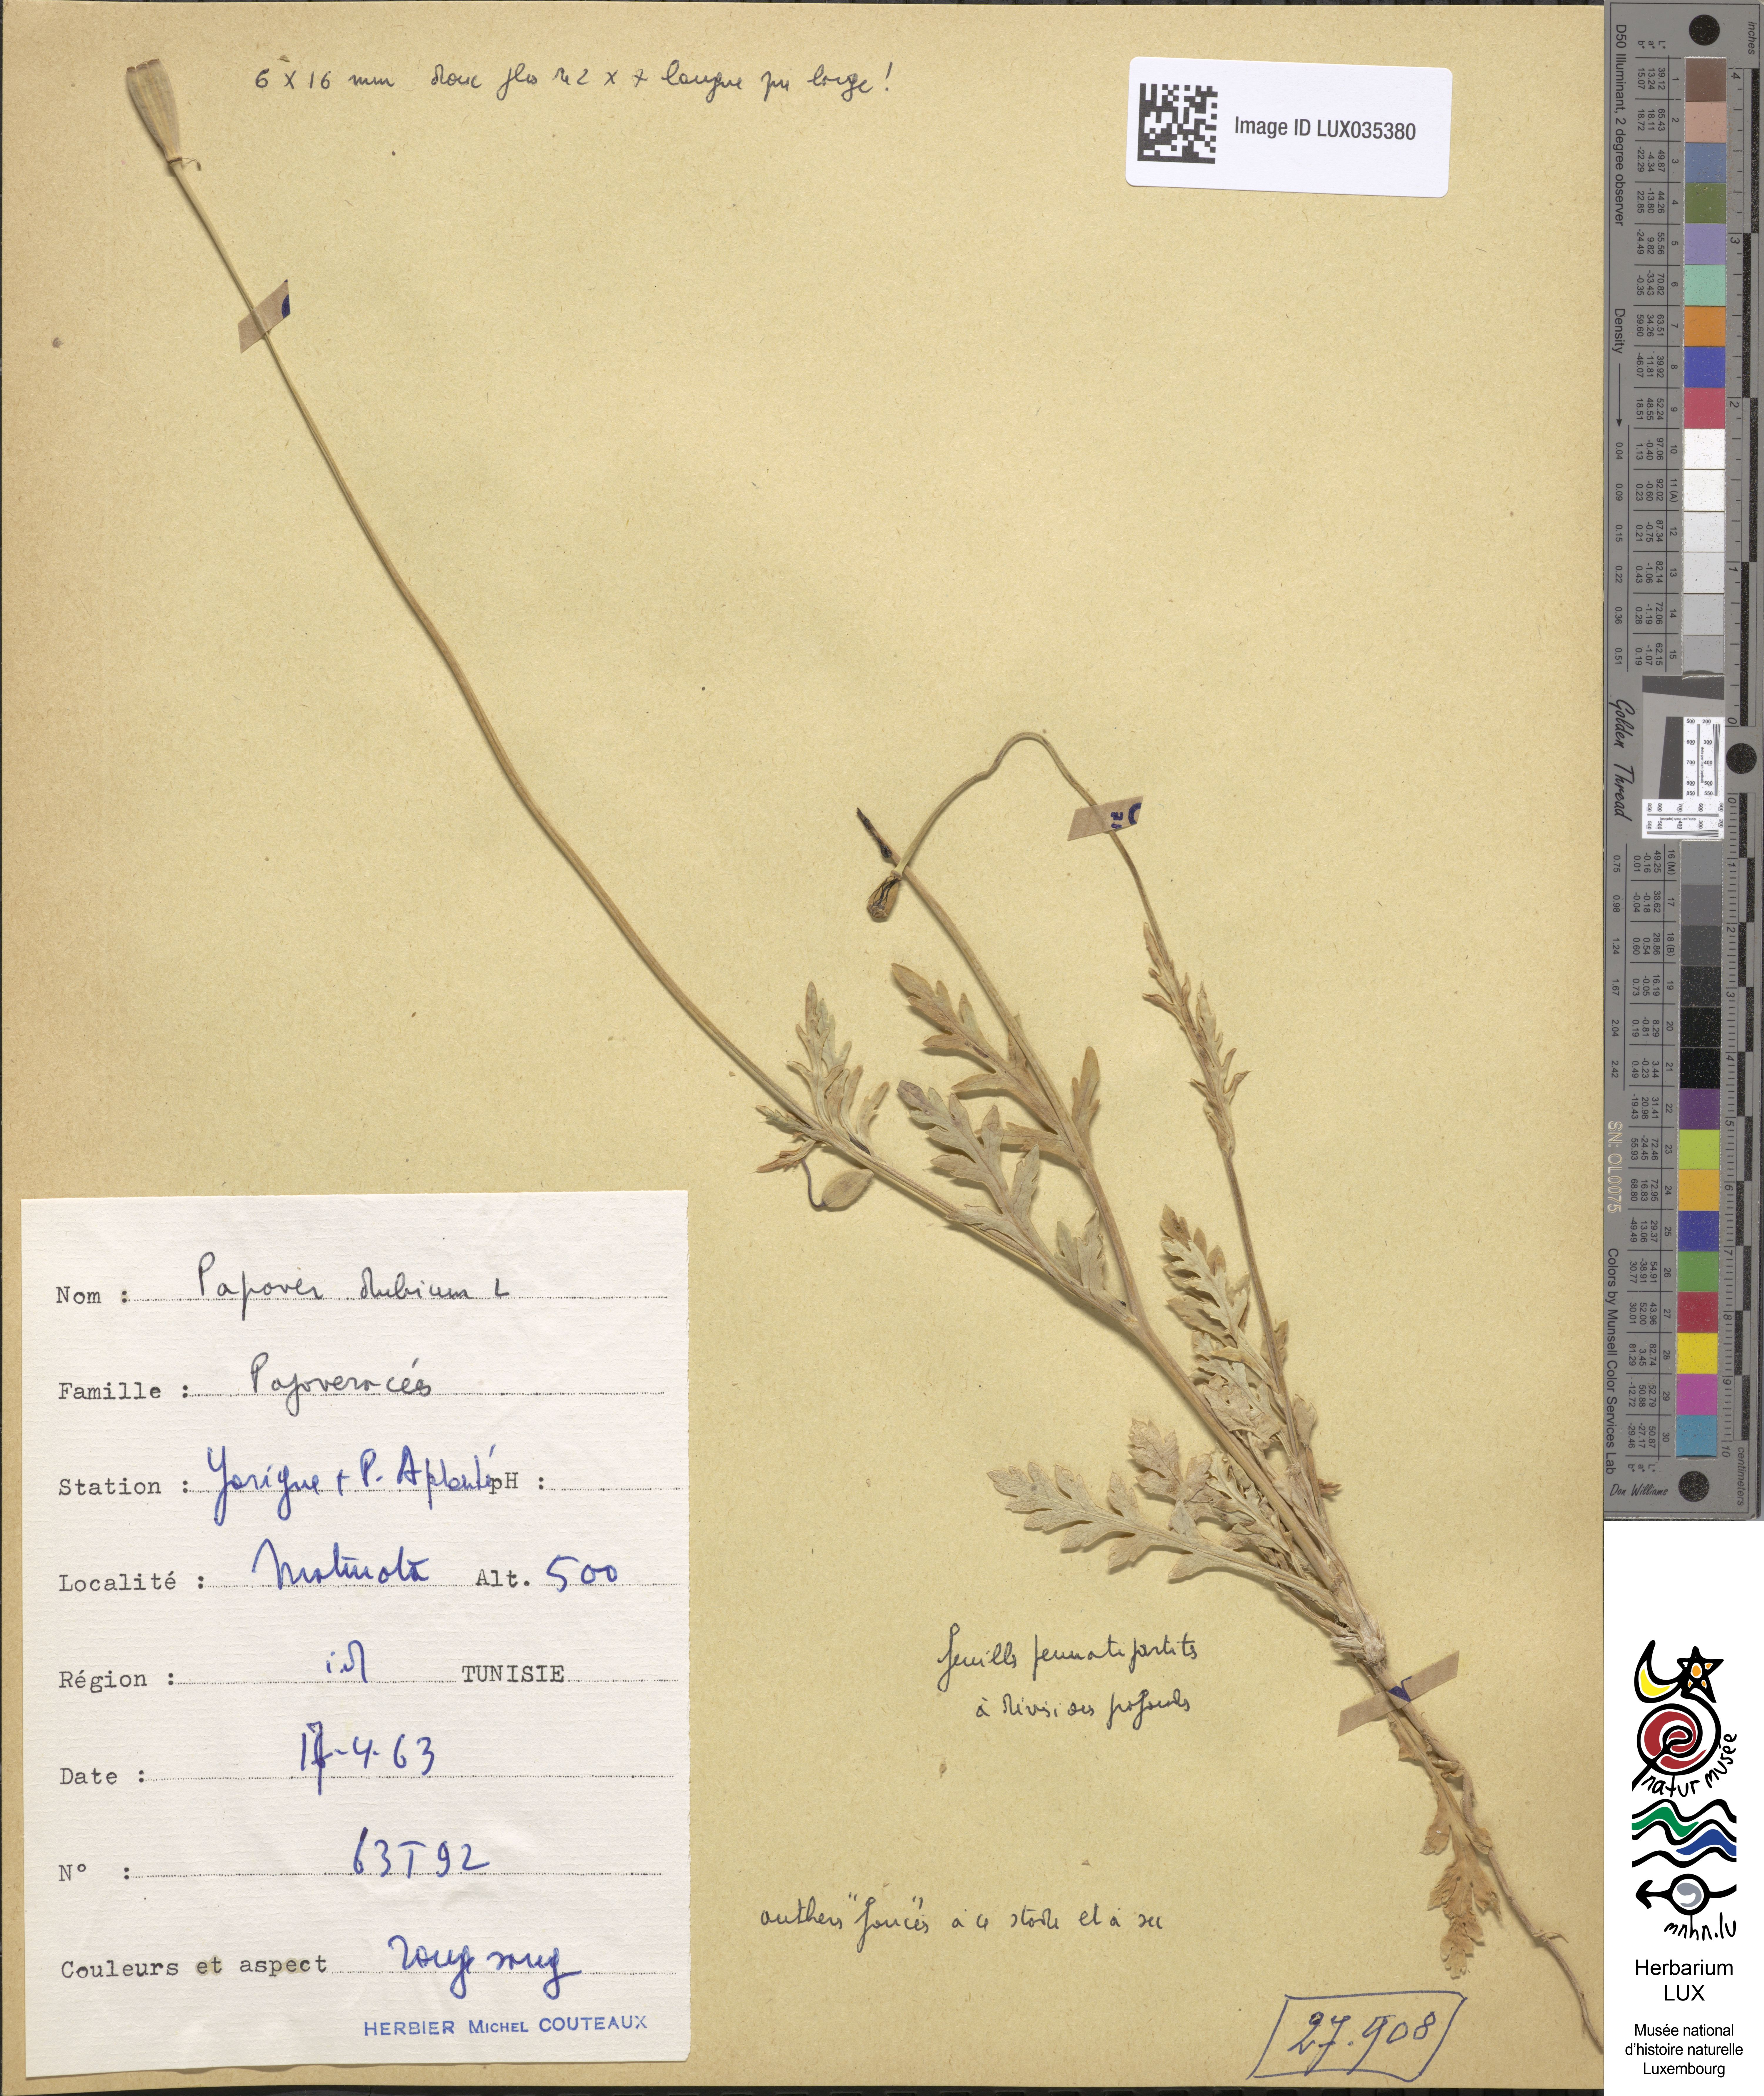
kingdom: Plantae
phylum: Tracheophyta
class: Magnoliopsida
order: Ranunculales
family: Papaveraceae
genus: Papaver
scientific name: Papaver dubium
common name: Long-headed poppy
